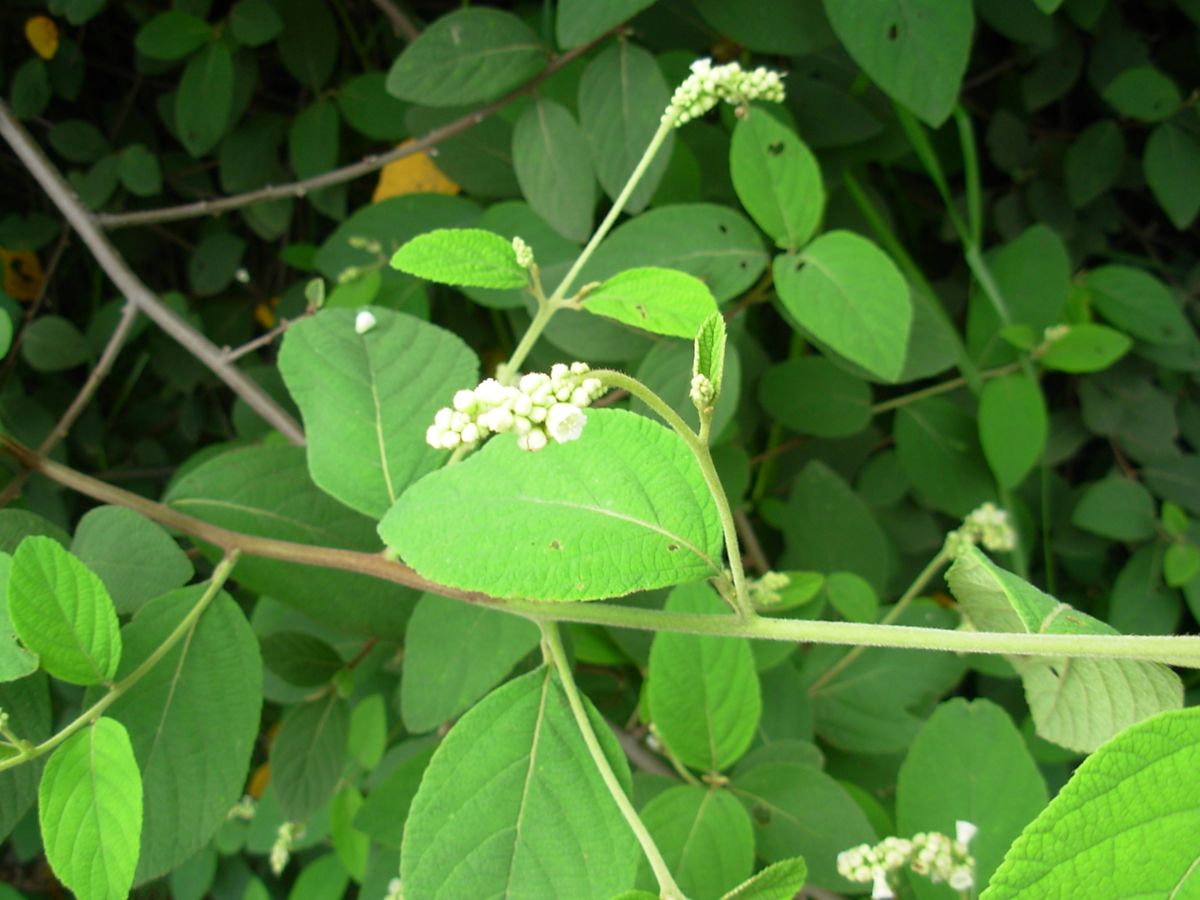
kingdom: Plantae
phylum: Tracheophyta
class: Magnoliopsida
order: Boraginales
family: Cordiaceae
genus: Varronia
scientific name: Varronia spinescens
